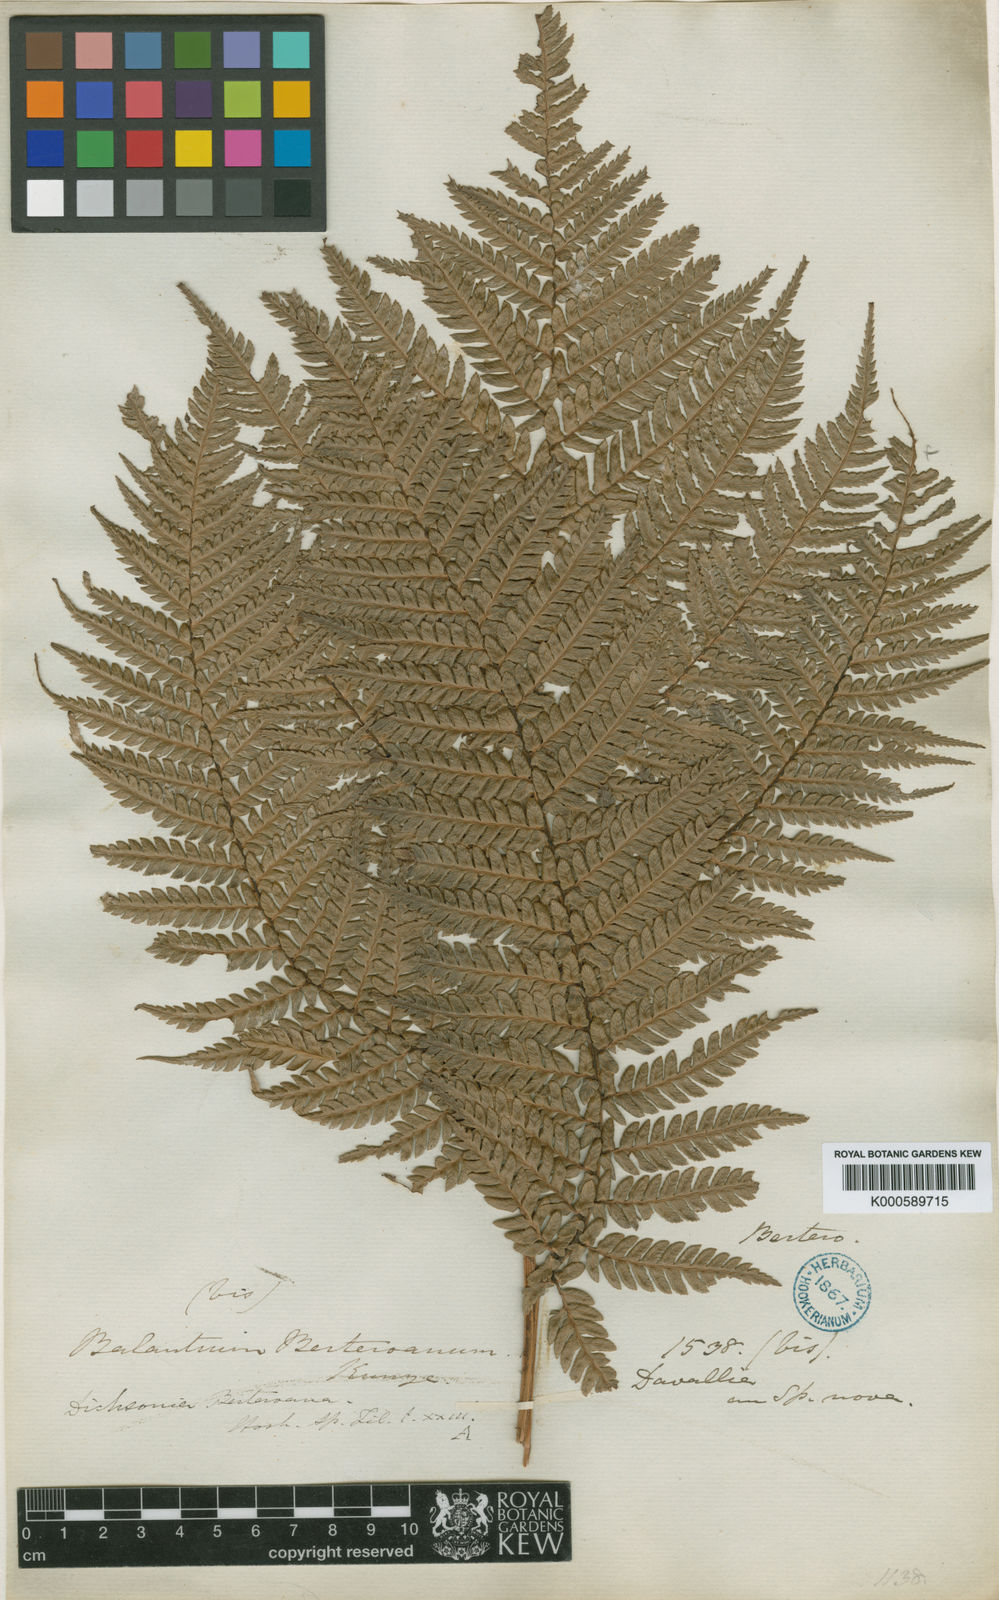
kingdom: Plantae
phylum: Tracheophyta
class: Polypodiopsida
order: Cyatheales
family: Dicksoniaceae
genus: Dicksonia
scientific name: Dicksonia berteroana
